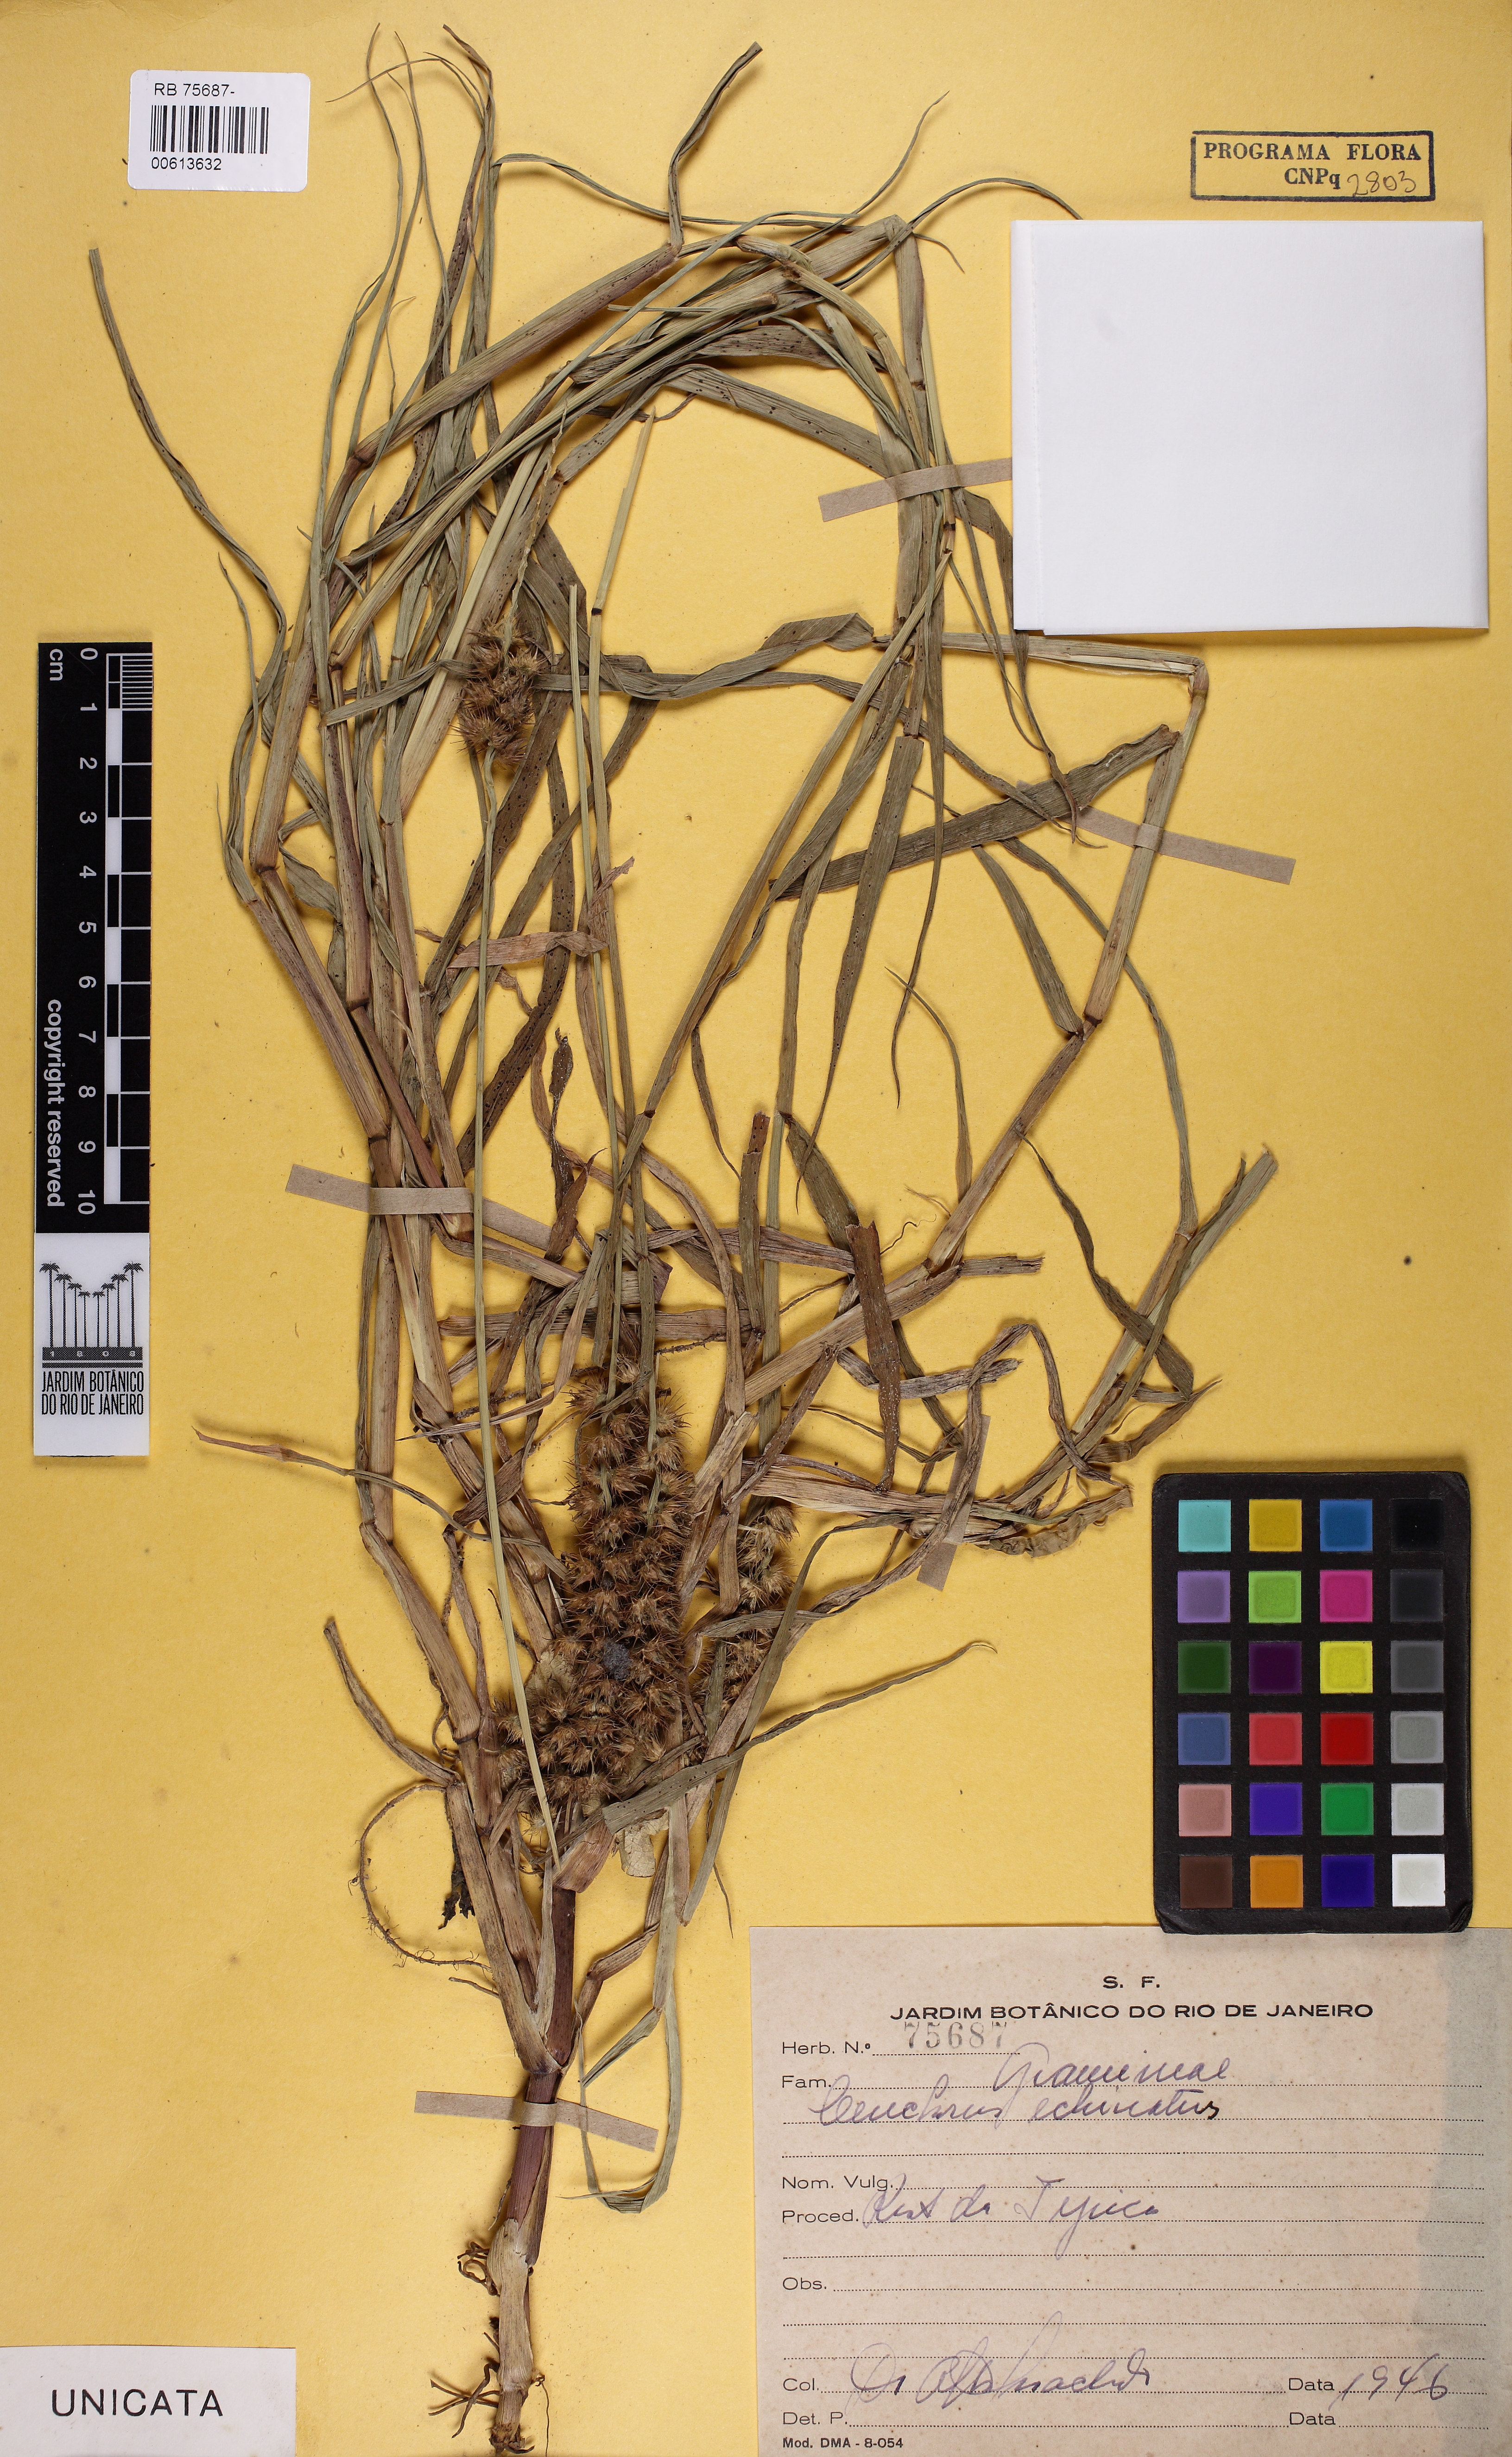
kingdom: Plantae
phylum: Tracheophyta
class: Liliopsida
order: Poales
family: Poaceae
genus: Cenchrus
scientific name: Cenchrus echinatus
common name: Southern sandbur
